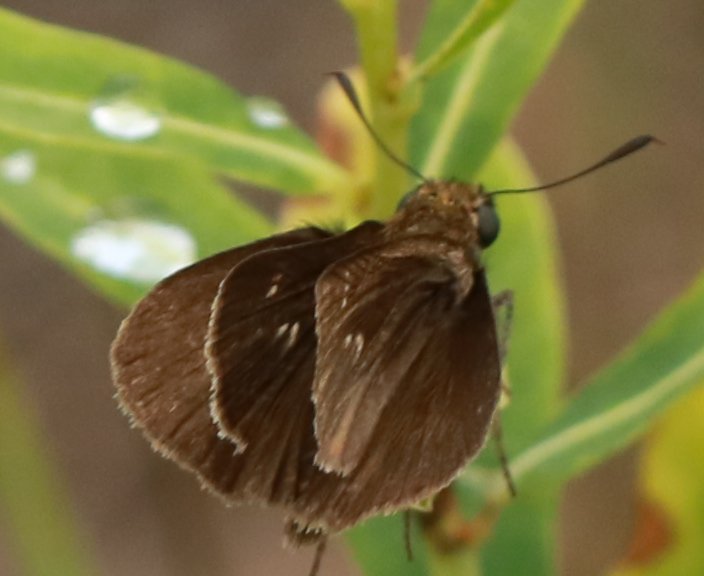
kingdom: Animalia
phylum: Arthropoda
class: Insecta
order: Lepidoptera
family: Hesperiidae
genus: Euphyes
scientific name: Euphyes vestris
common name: Dun Skipper
